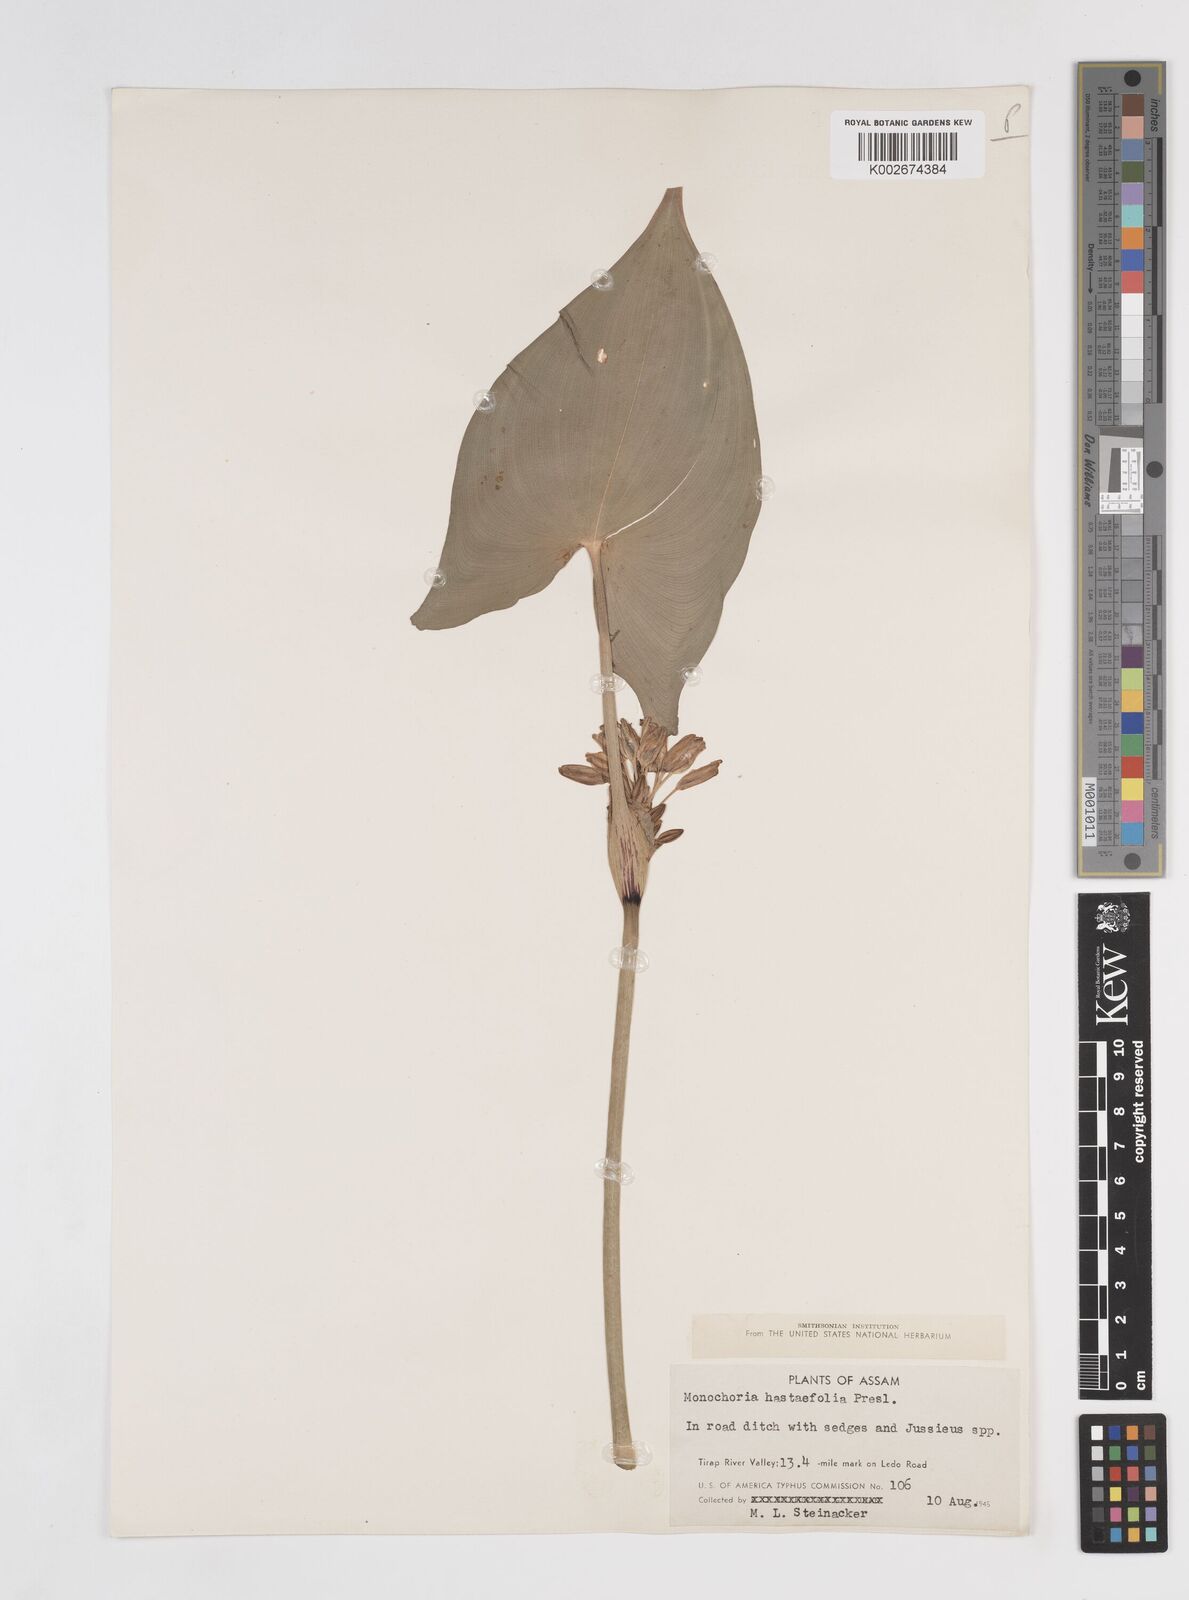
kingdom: Plantae
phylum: Tracheophyta
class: Liliopsida
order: Commelinales
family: Pontederiaceae
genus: Pontederia
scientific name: Pontederia hastata
